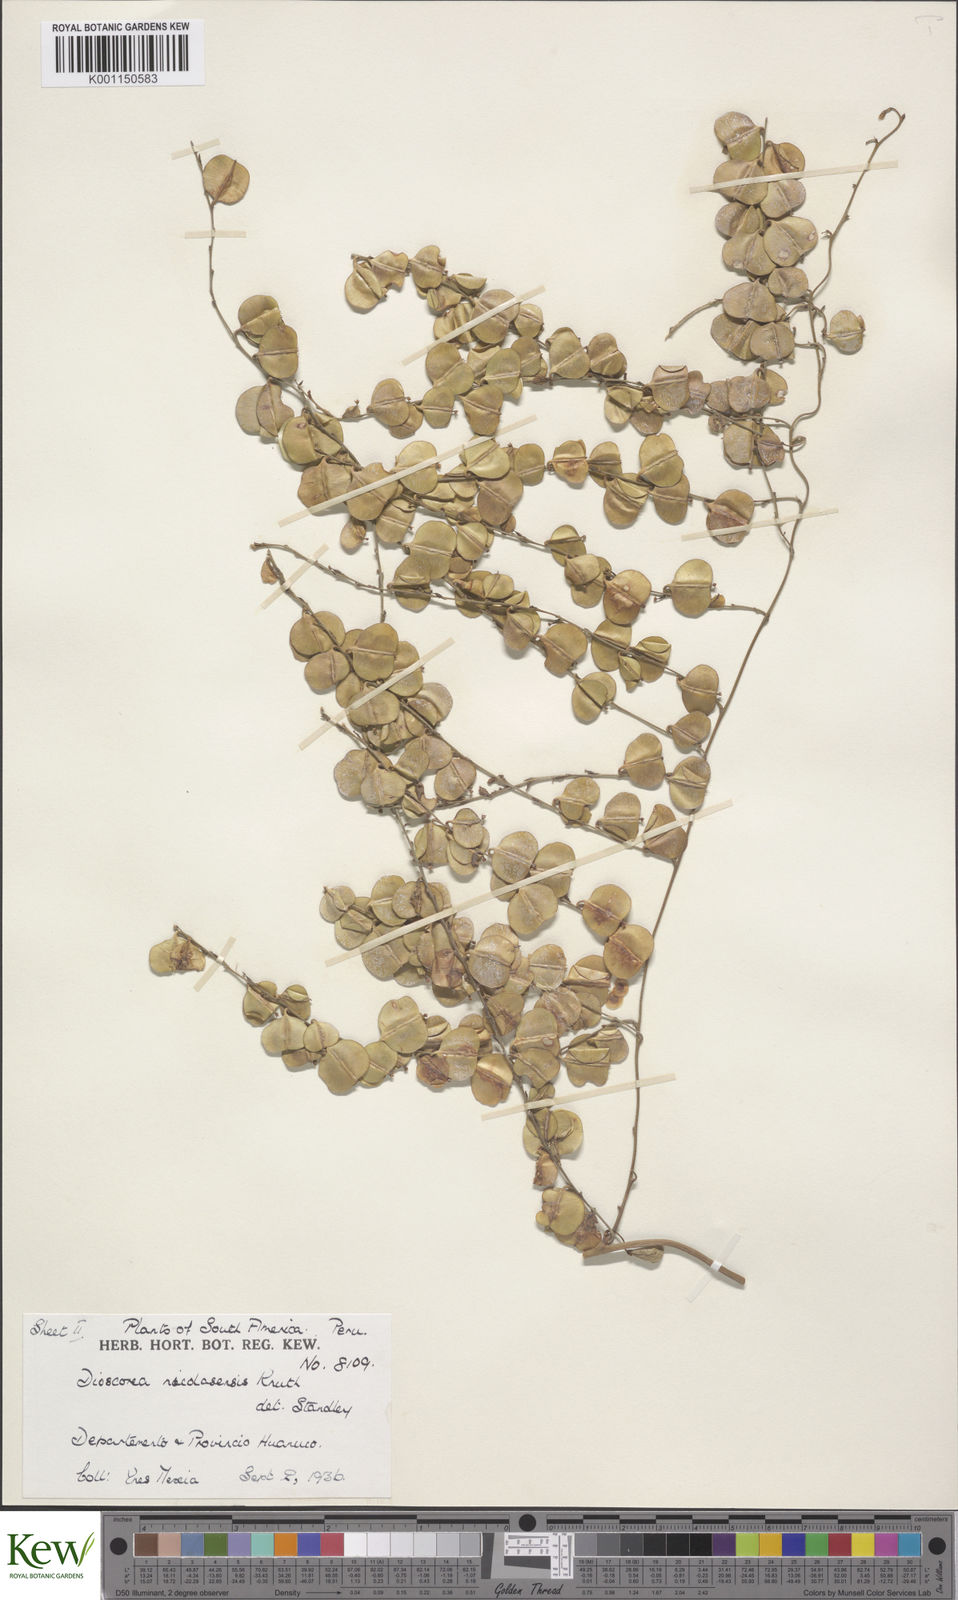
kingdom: Plantae
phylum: Tracheophyta
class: Liliopsida
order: Dioscoreales
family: Dioscoreaceae
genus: Dioscorea
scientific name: Dioscorea nicolasensis
